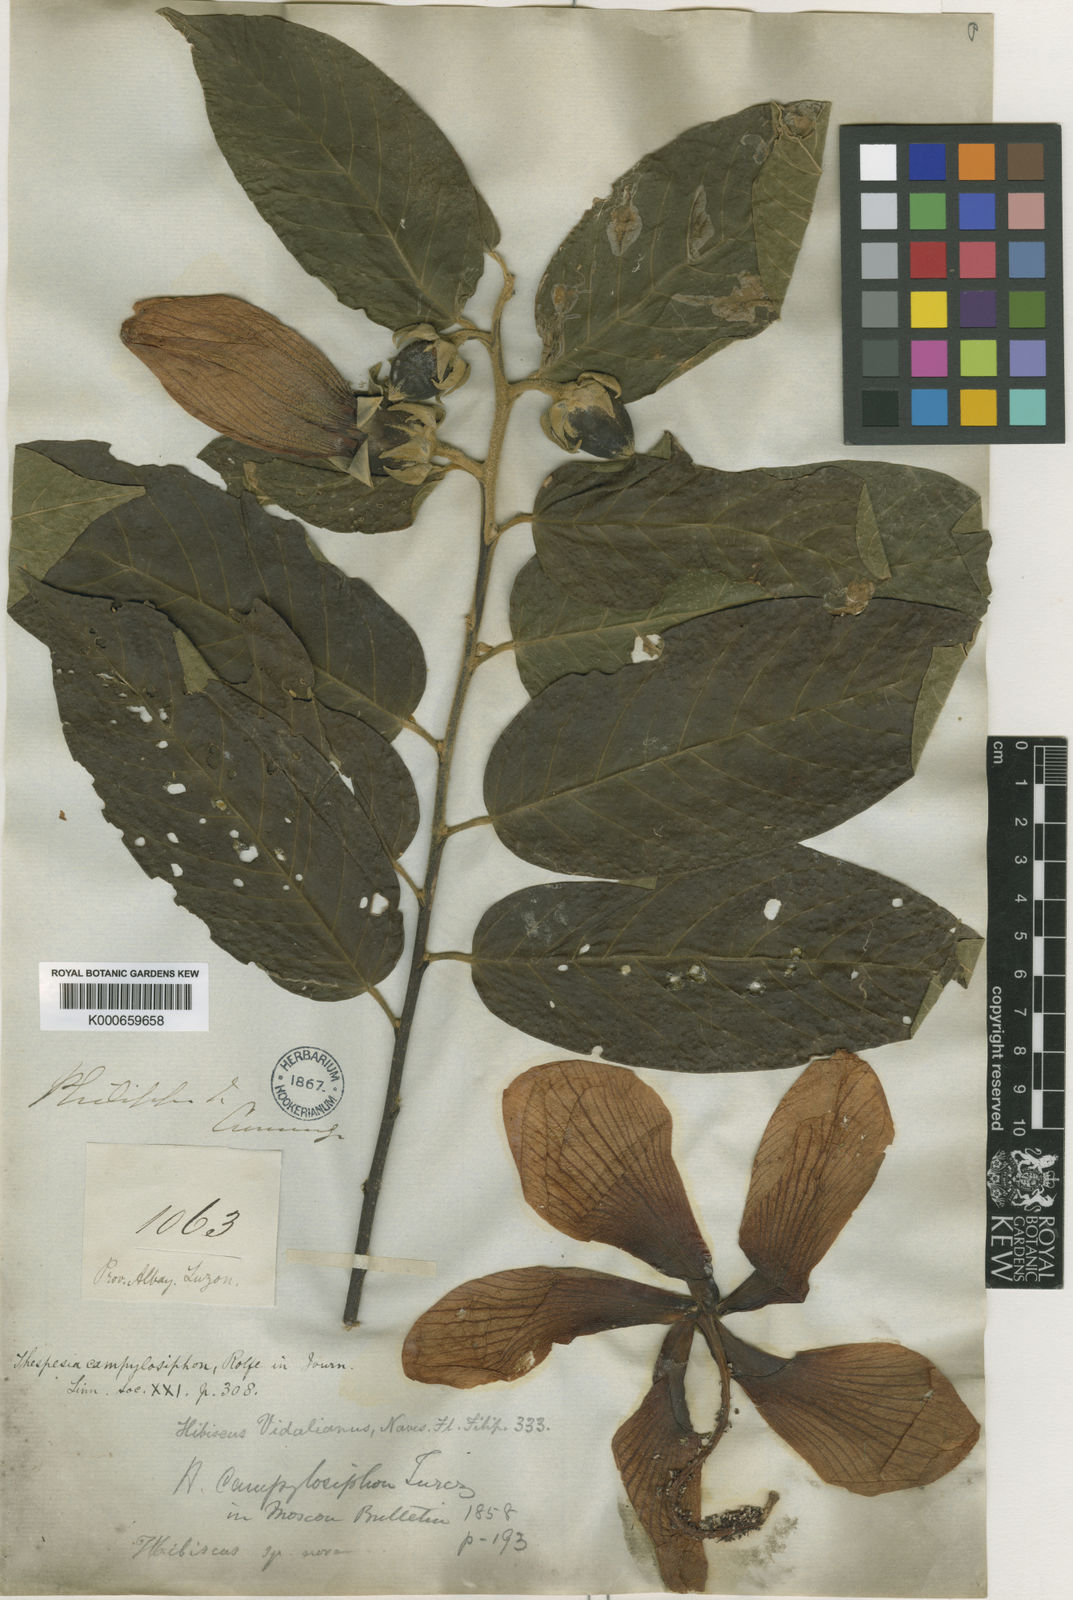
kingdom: Plantae
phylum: Tracheophyta
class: Magnoliopsida
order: Malvales
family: Malvaceae
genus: Bombycidendron
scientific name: Bombycidendron
